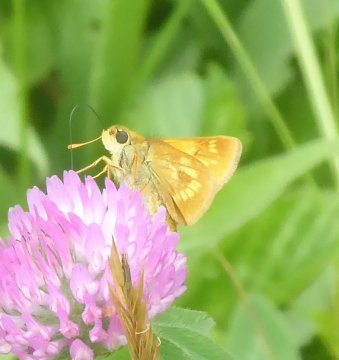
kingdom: Animalia
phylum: Arthropoda
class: Insecta
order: Lepidoptera
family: Hesperiidae
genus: Polites
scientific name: Polites
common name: Long Dash Skipper
